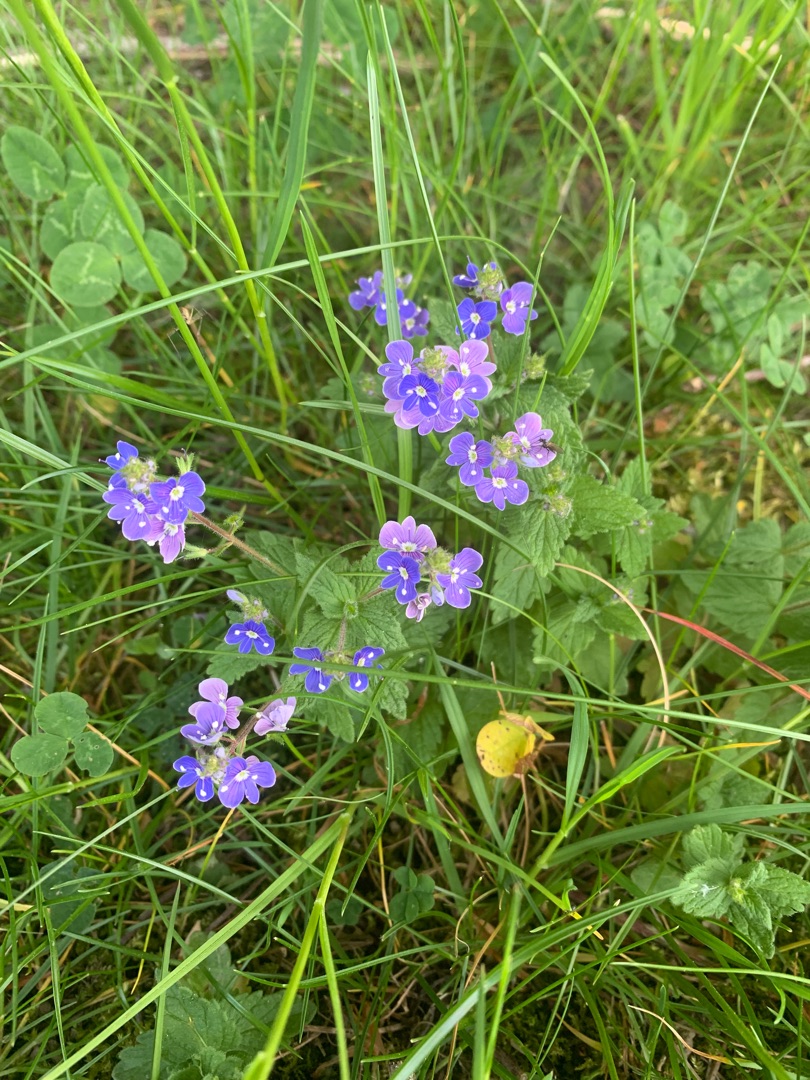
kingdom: Plantae
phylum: Tracheophyta
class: Magnoliopsida
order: Lamiales
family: Plantaginaceae
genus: Veronica
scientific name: Veronica chamaedrys
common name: Tveskægget ærenpris
